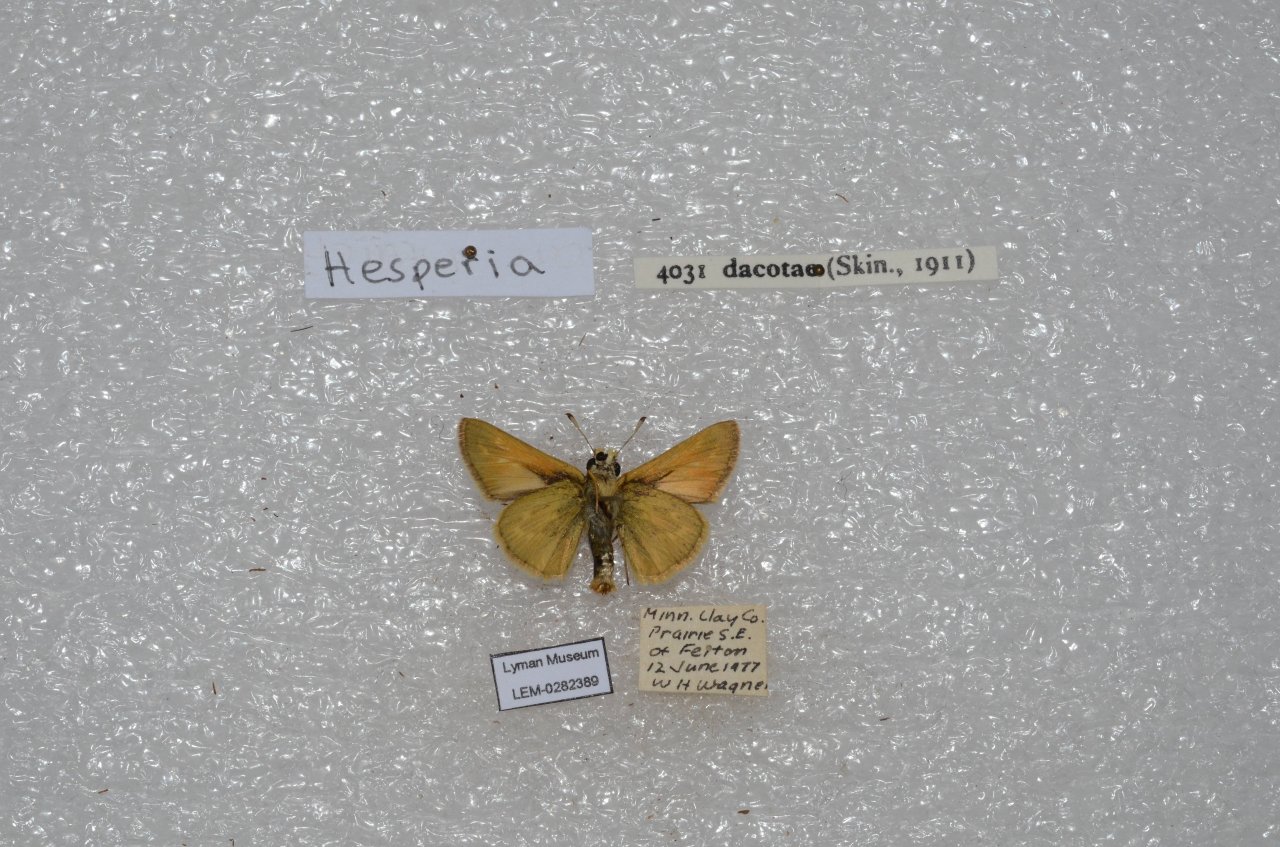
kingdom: Animalia
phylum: Arthropoda
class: Insecta
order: Lepidoptera
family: Hesperiidae
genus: Hesperia
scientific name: Hesperia dacotae
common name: Dakota Skipper
